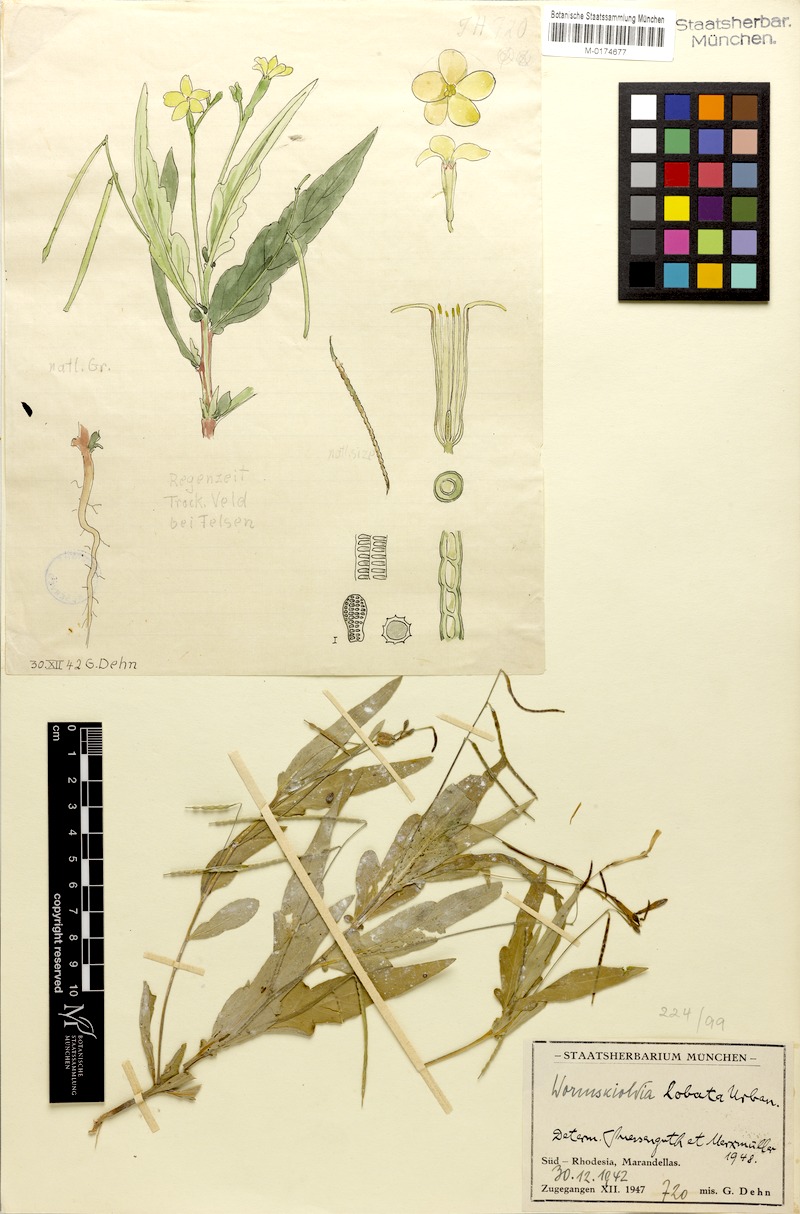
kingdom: Plantae
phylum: Tracheophyta
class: Magnoliopsida
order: Malpighiales
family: Turneraceae
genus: Tricliceras
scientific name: Tricliceras lobatum
